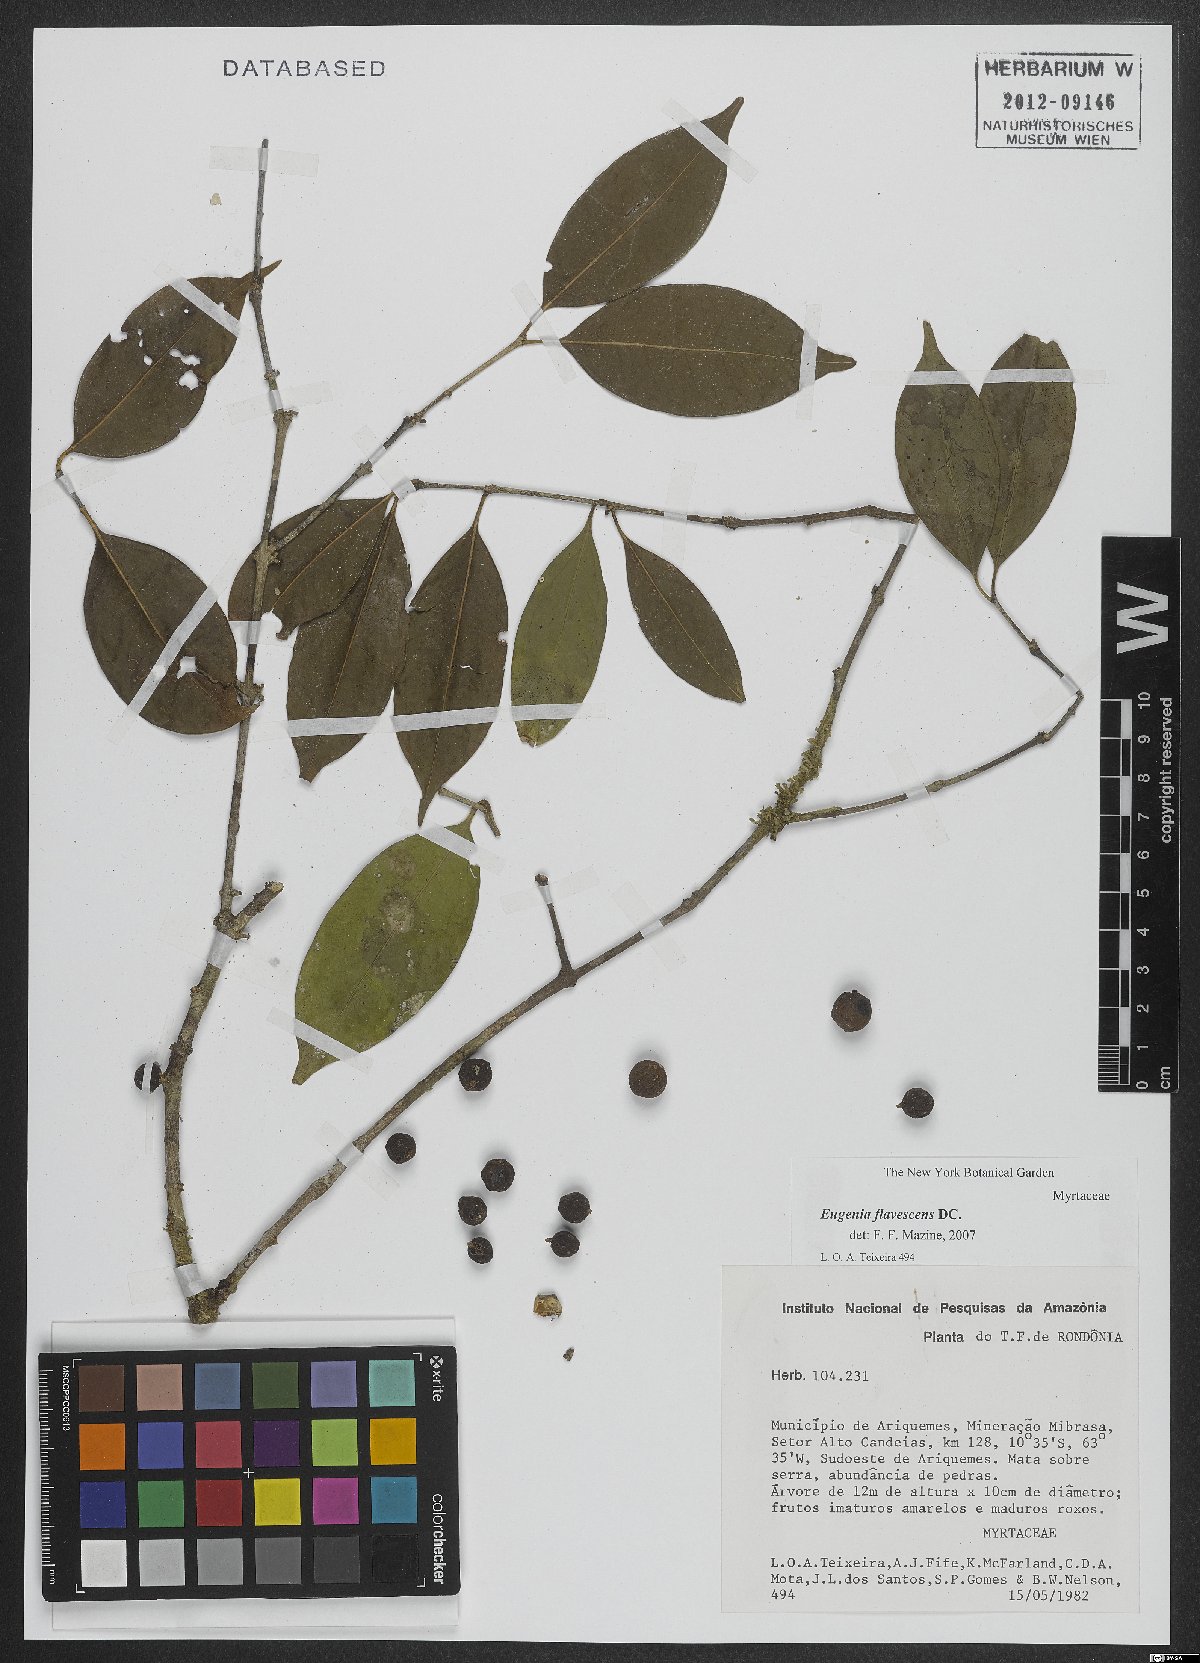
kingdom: Plantae
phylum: Tracheophyta
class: Magnoliopsida
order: Myrtales
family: Myrtaceae
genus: Eugenia
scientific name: Eugenia flavescens
